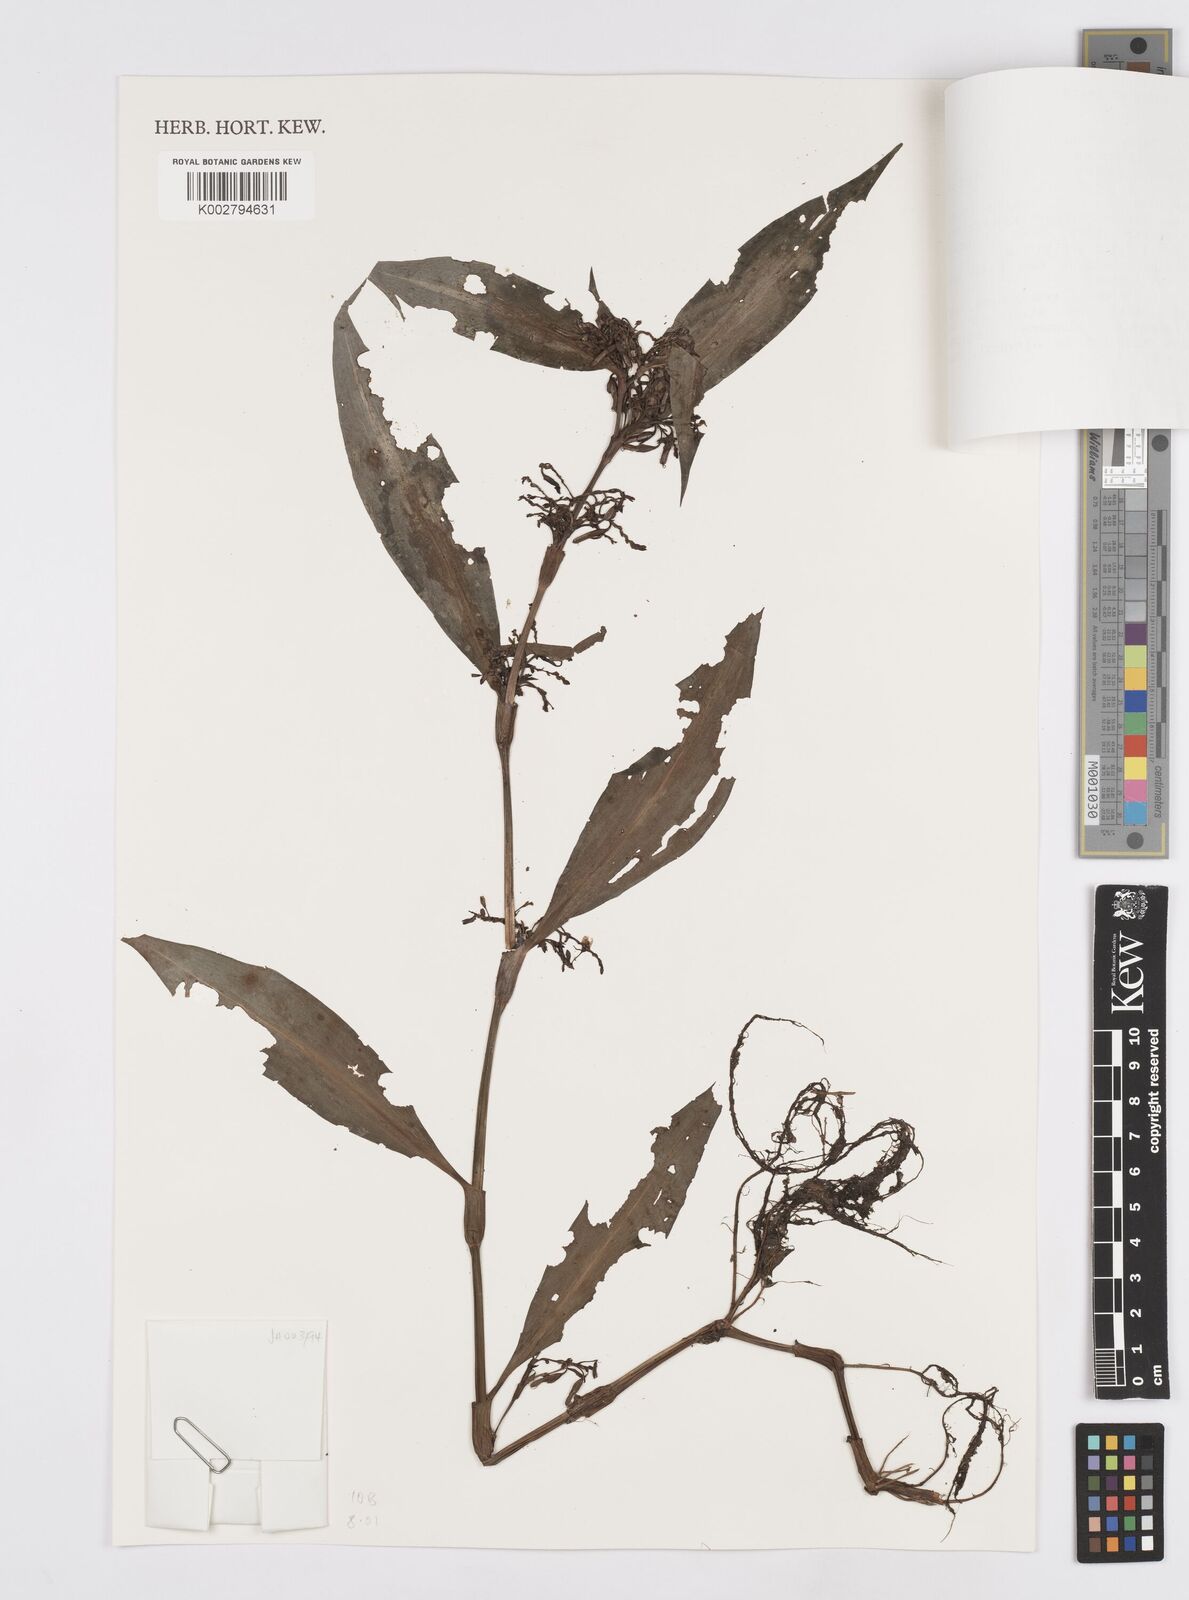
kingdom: Plantae
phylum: Tracheophyta
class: Liliopsida
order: Commelinales
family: Commelinaceae
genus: Stanfieldiella
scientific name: Stanfieldiella imperforata
